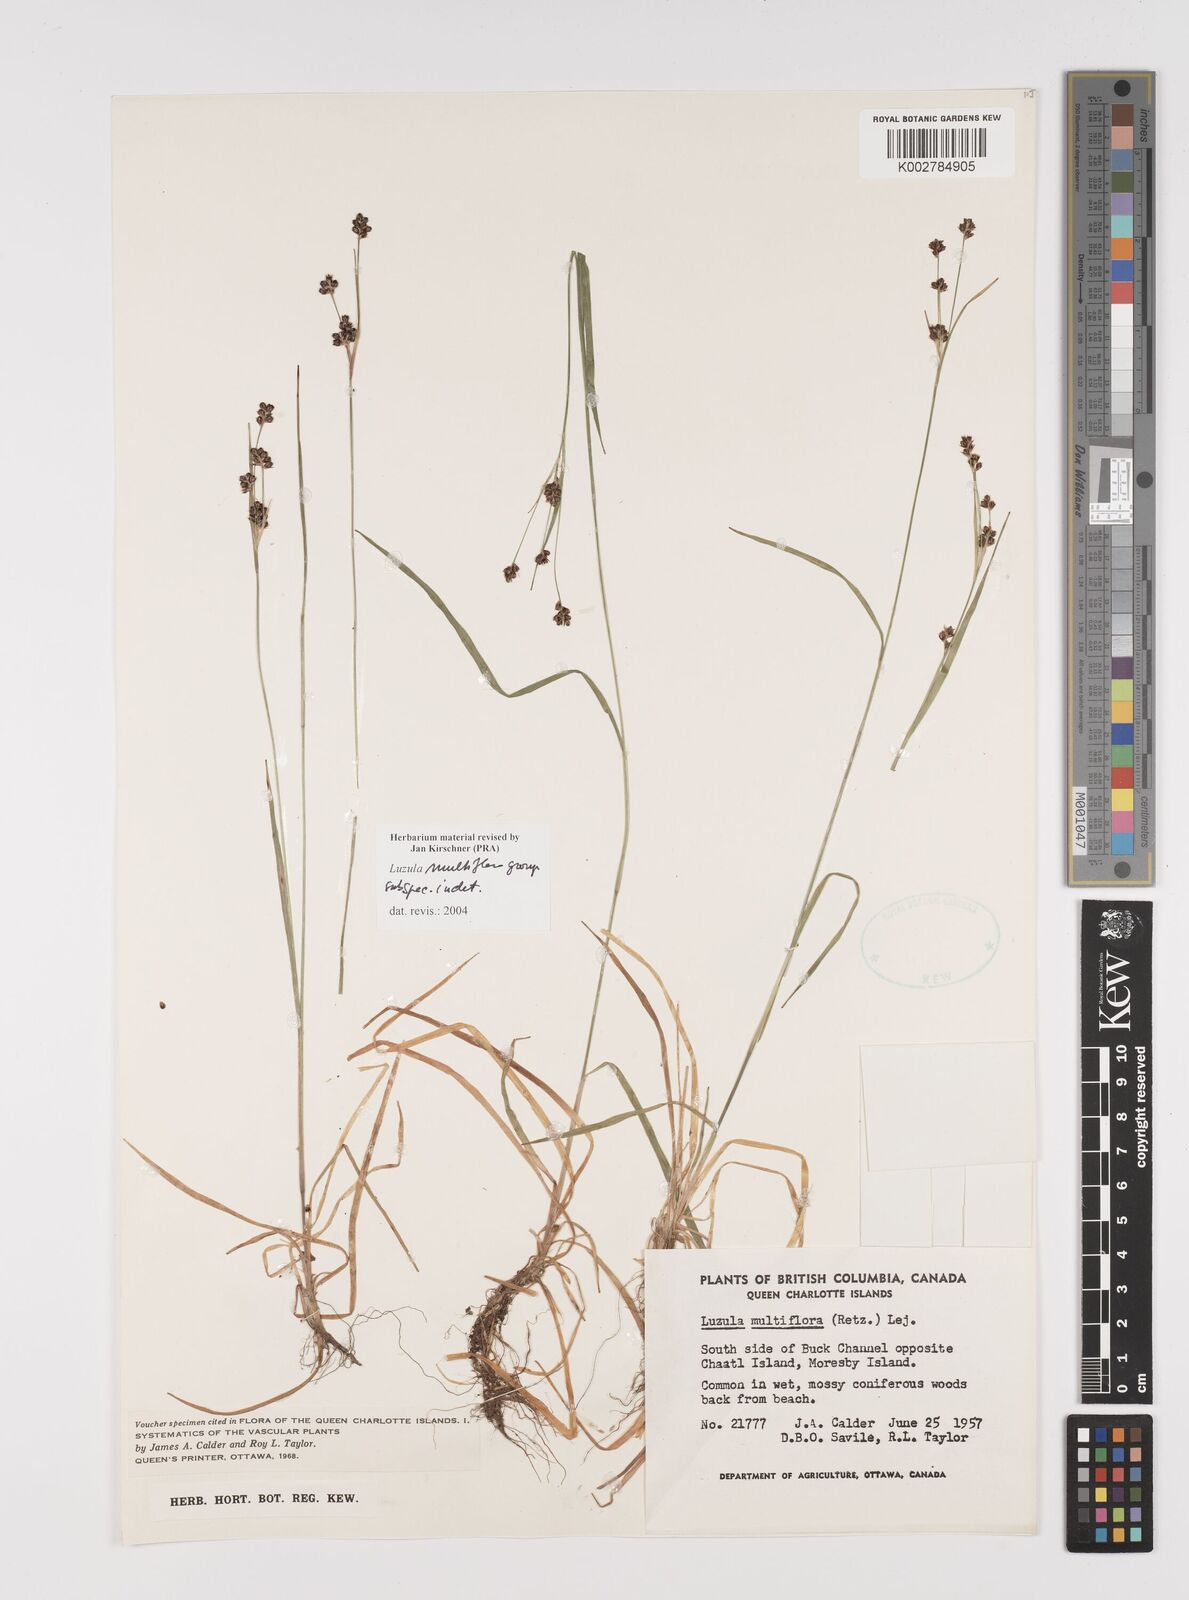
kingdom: Plantae
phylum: Tracheophyta
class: Liliopsida
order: Poales
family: Juncaceae
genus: Luzula
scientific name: Luzula multiflora
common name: Heath wood-rush
